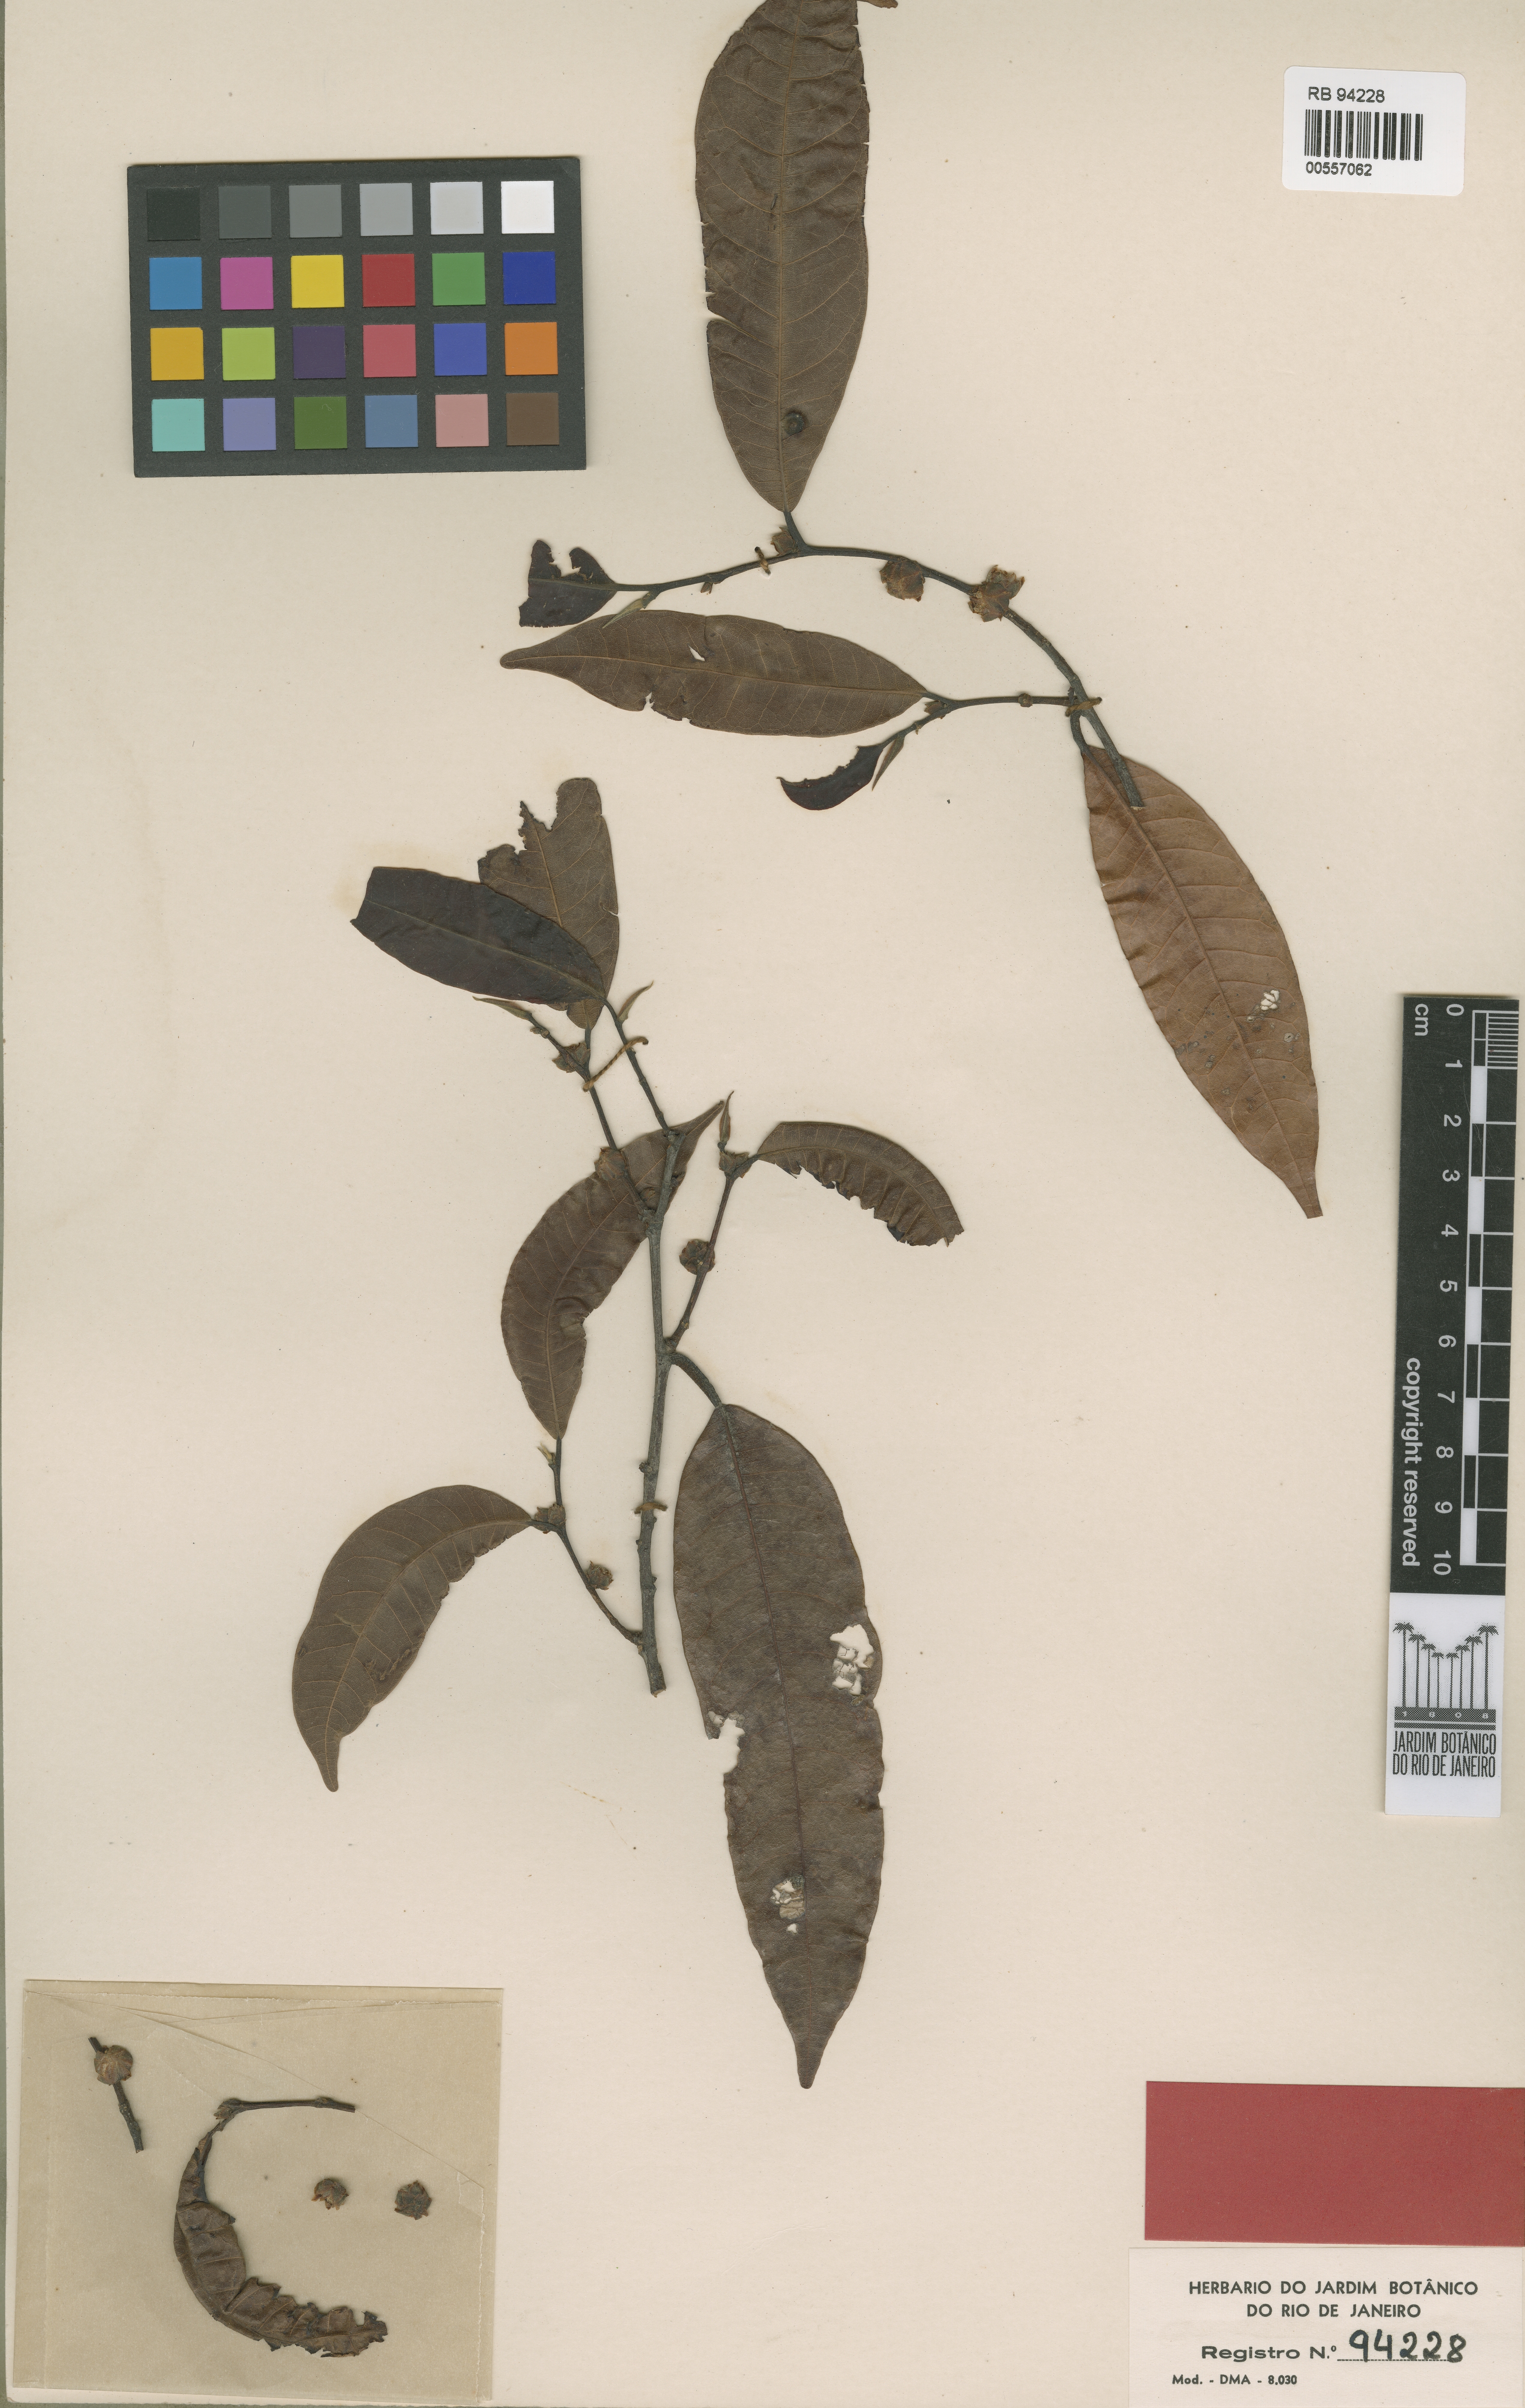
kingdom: Plantae
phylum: Tracheophyta
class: Magnoliopsida
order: Rosales
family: Moraceae
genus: Pseudolmedia
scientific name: Pseudolmedia laevigata
